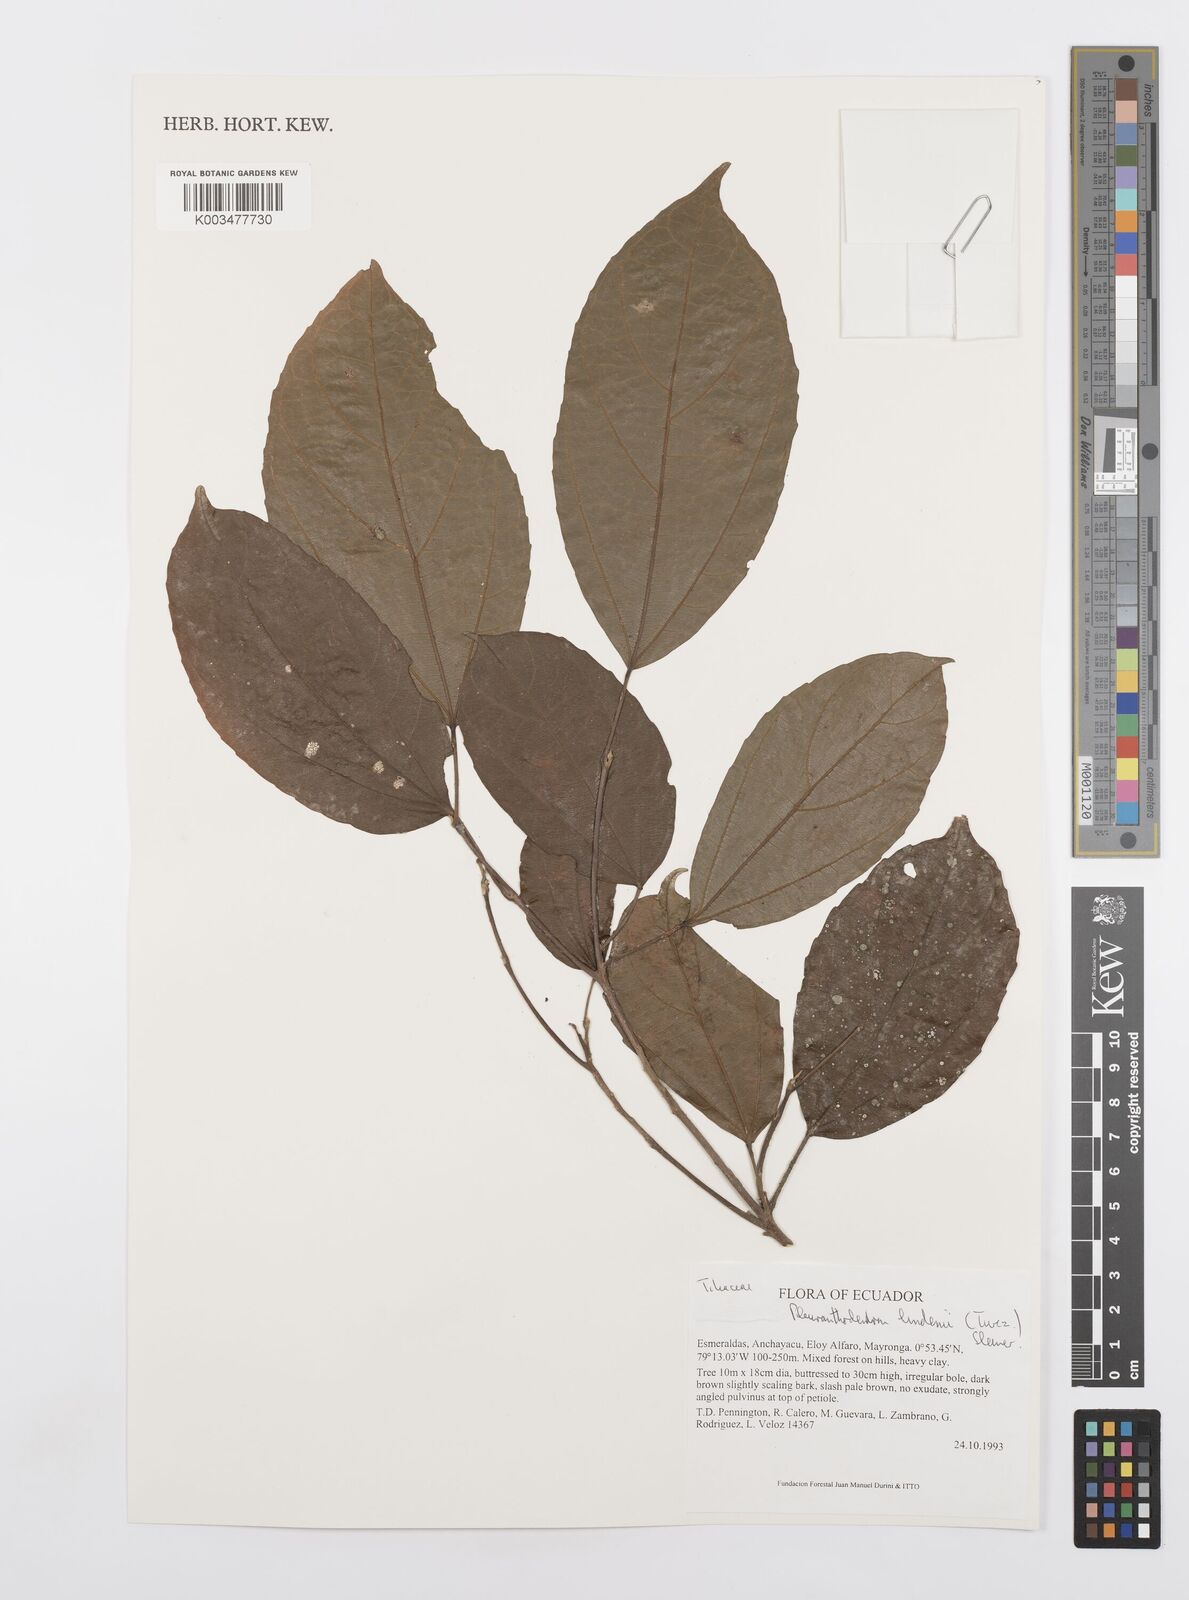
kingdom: Plantae
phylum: Tracheophyta
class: Magnoliopsida
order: Malpighiales
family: Salicaceae
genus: Pleuranthodendron
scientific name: Pleuranthodendron lindenii
